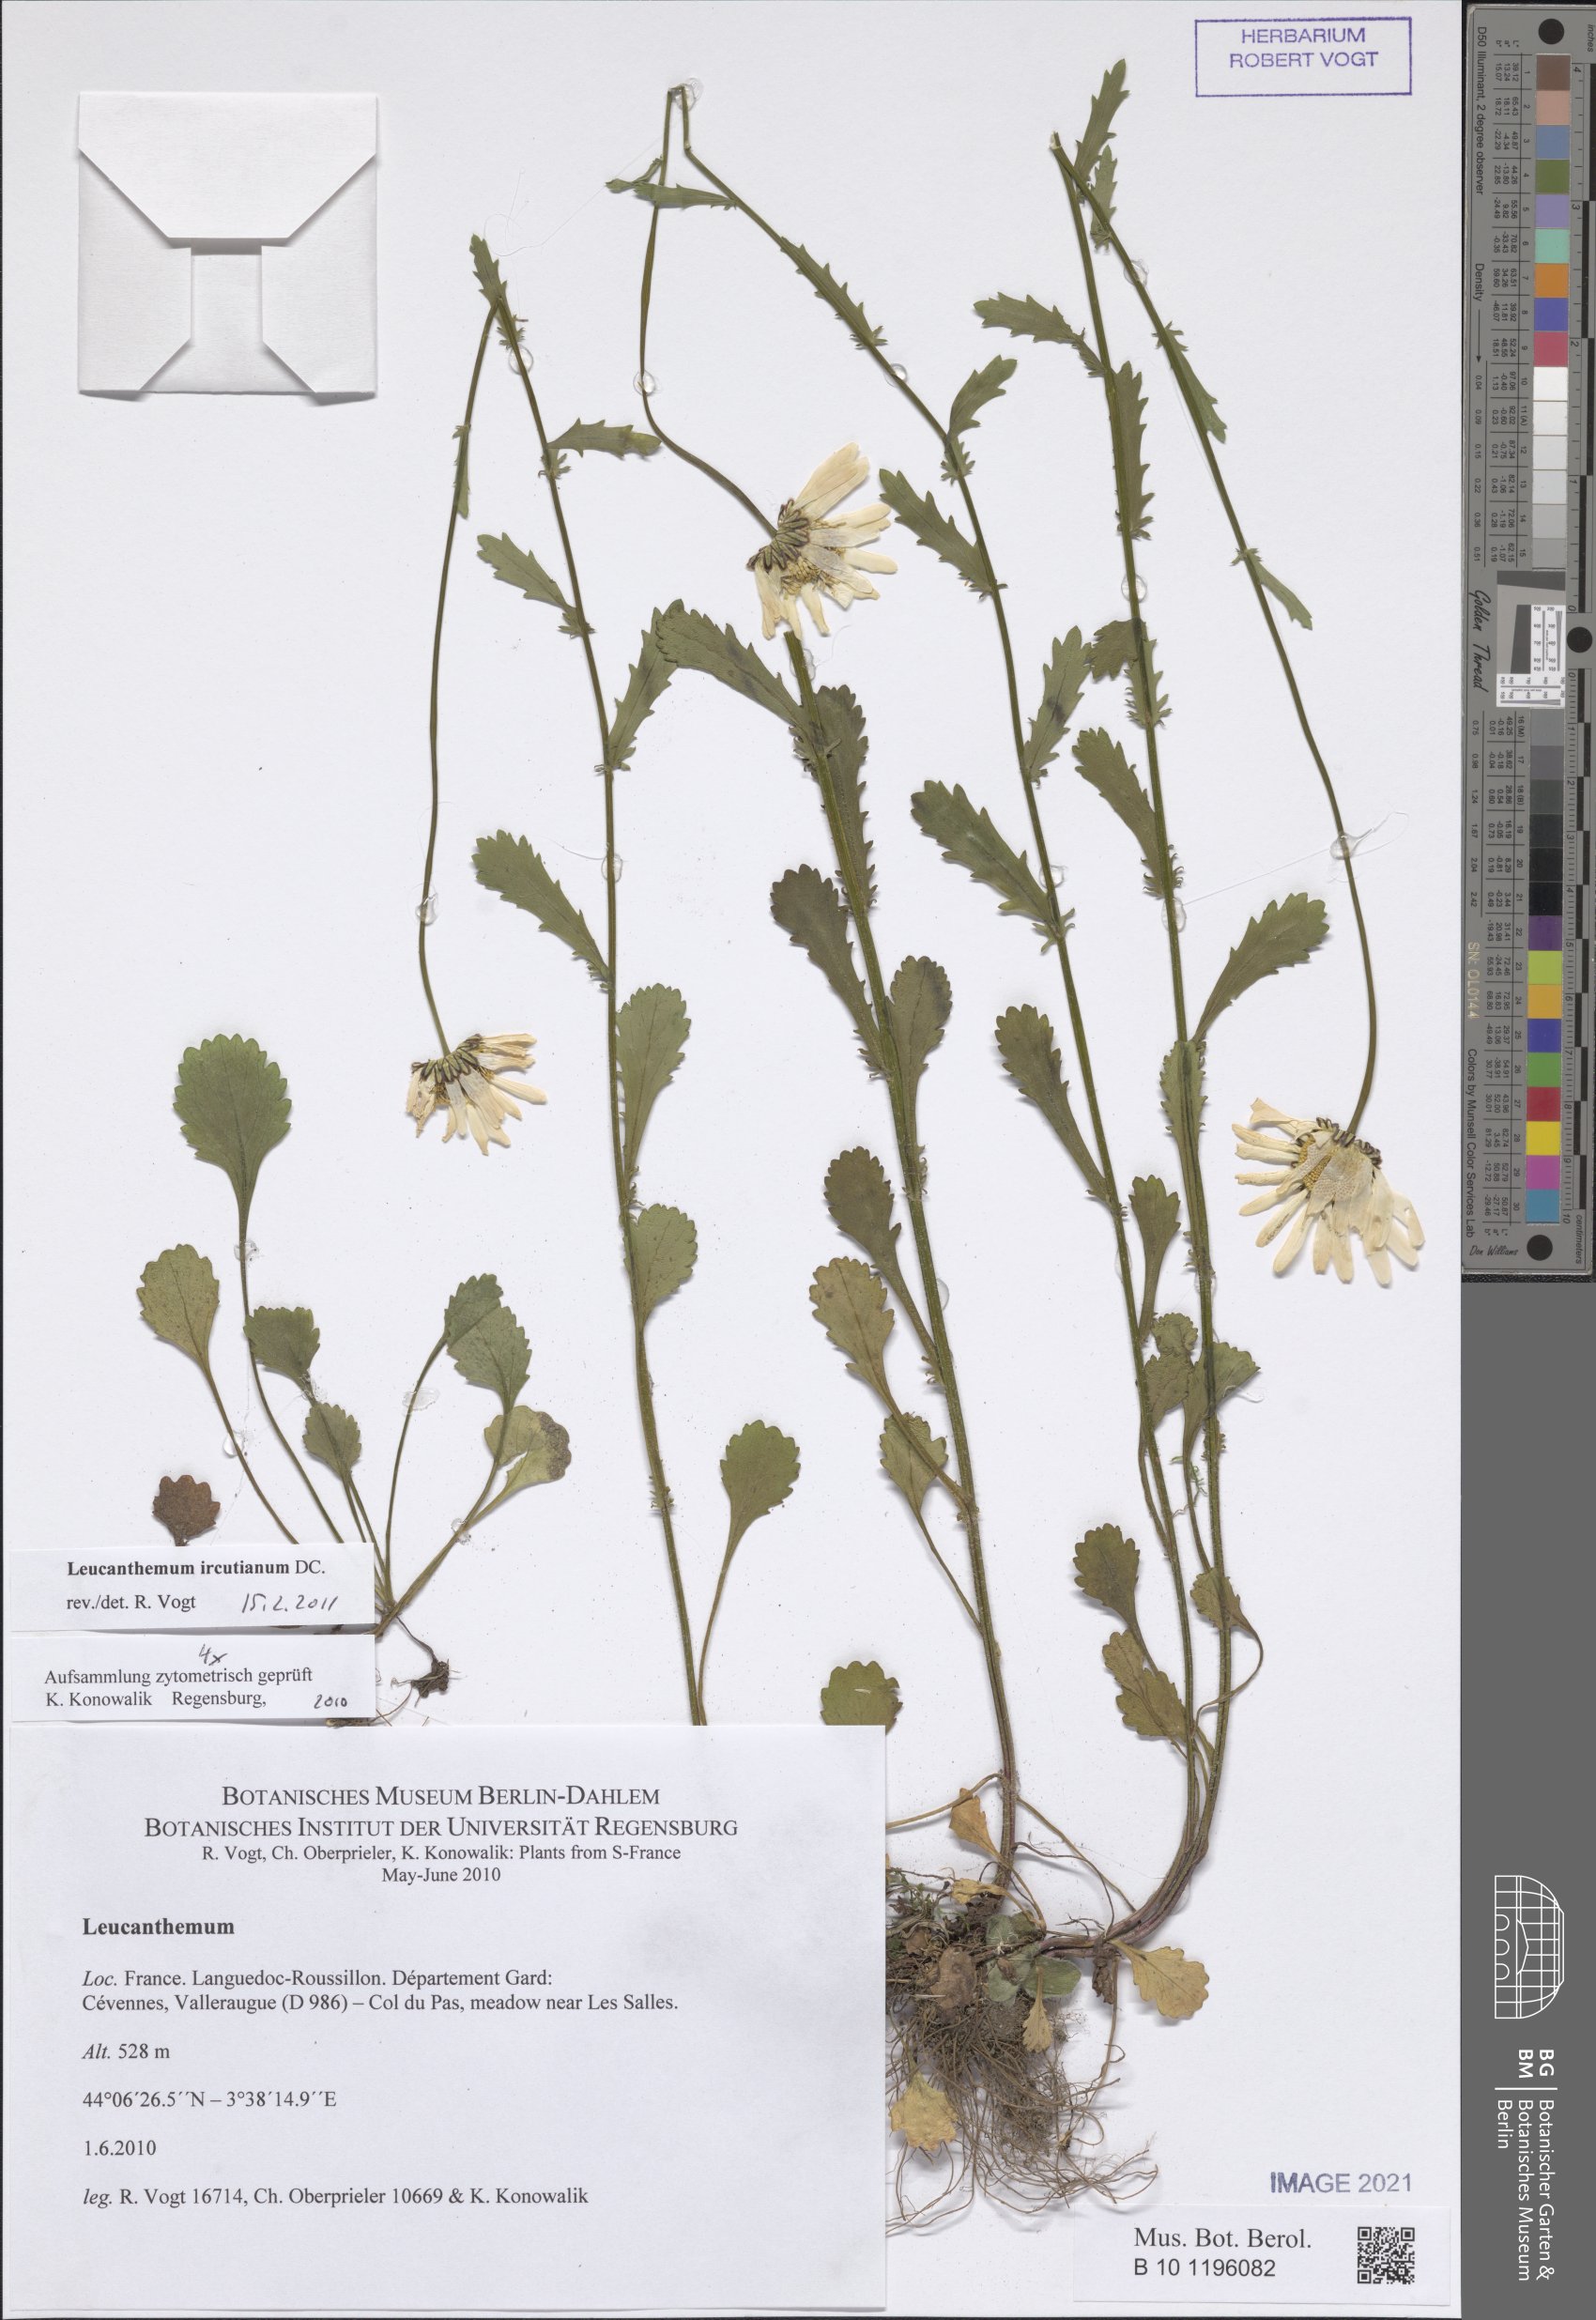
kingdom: Plantae
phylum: Tracheophyta
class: Magnoliopsida
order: Asterales
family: Asteraceae
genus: Leucanthemum
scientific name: Leucanthemum ircutianum
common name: Daisy
